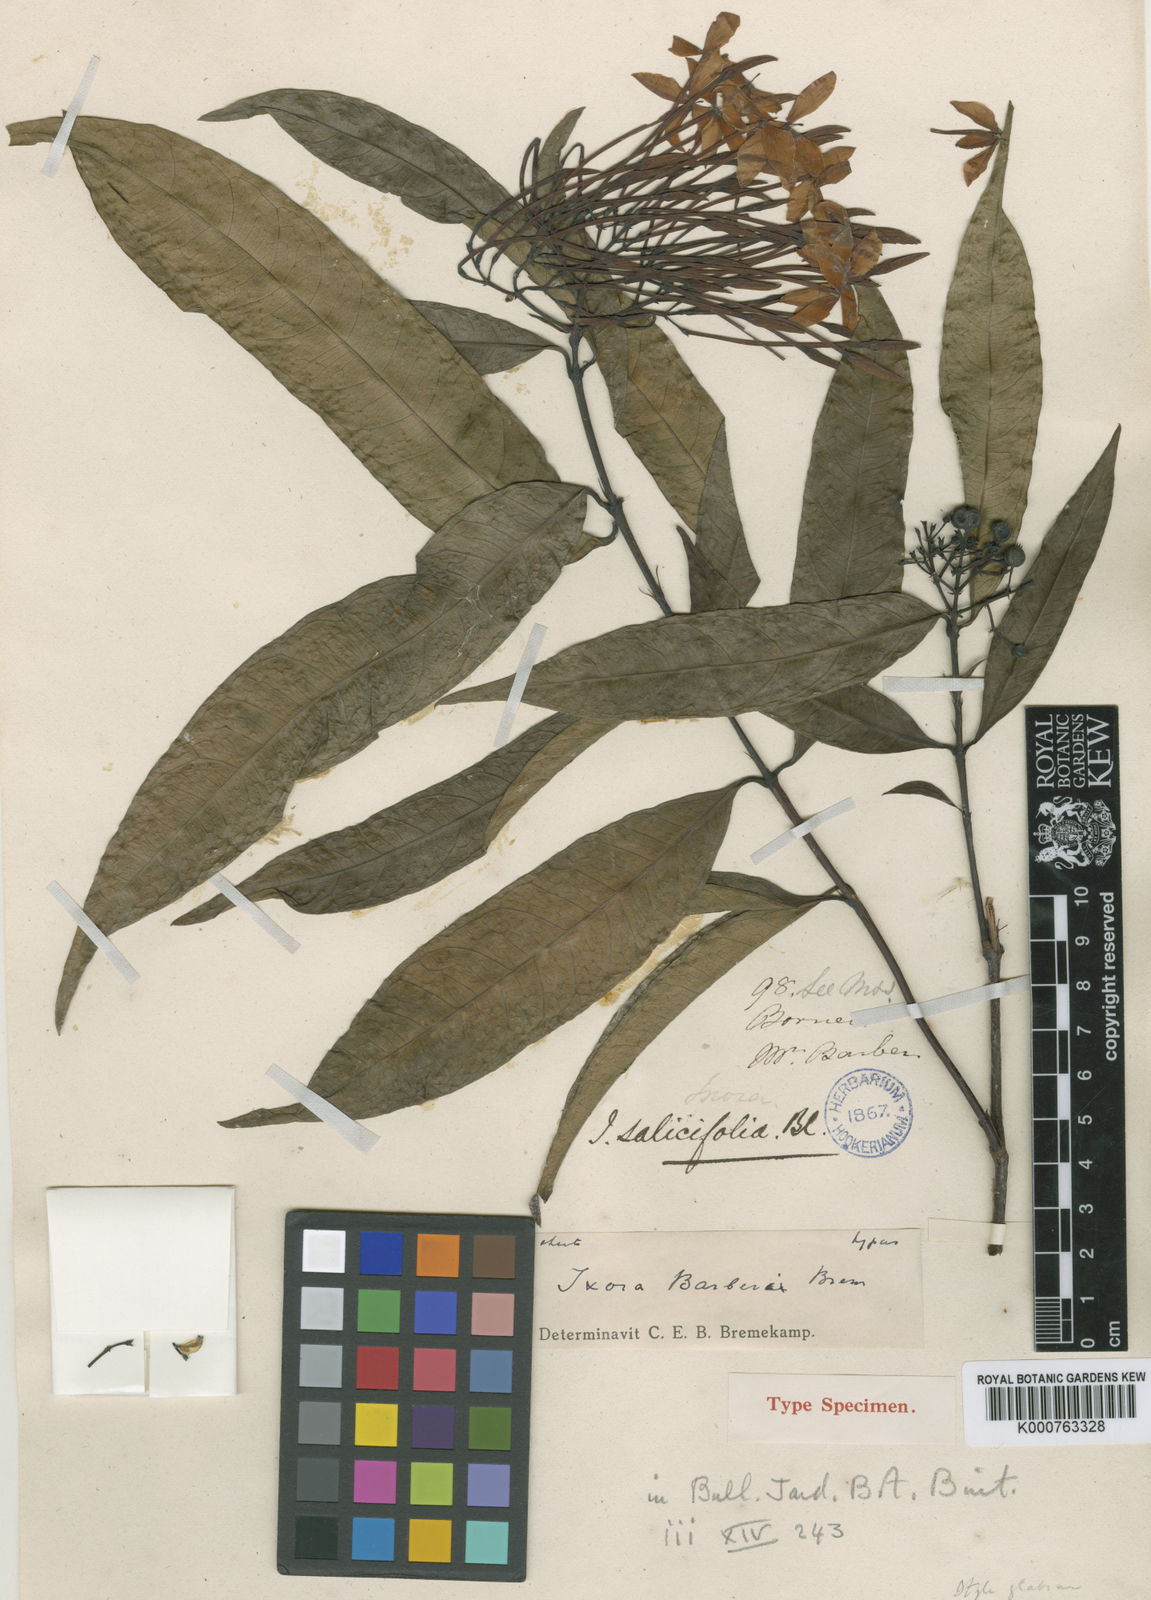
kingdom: Plantae
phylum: Tracheophyta
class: Magnoliopsida
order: Gentianales
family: Rubiaceae
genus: Ixora
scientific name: Ixora barberae
